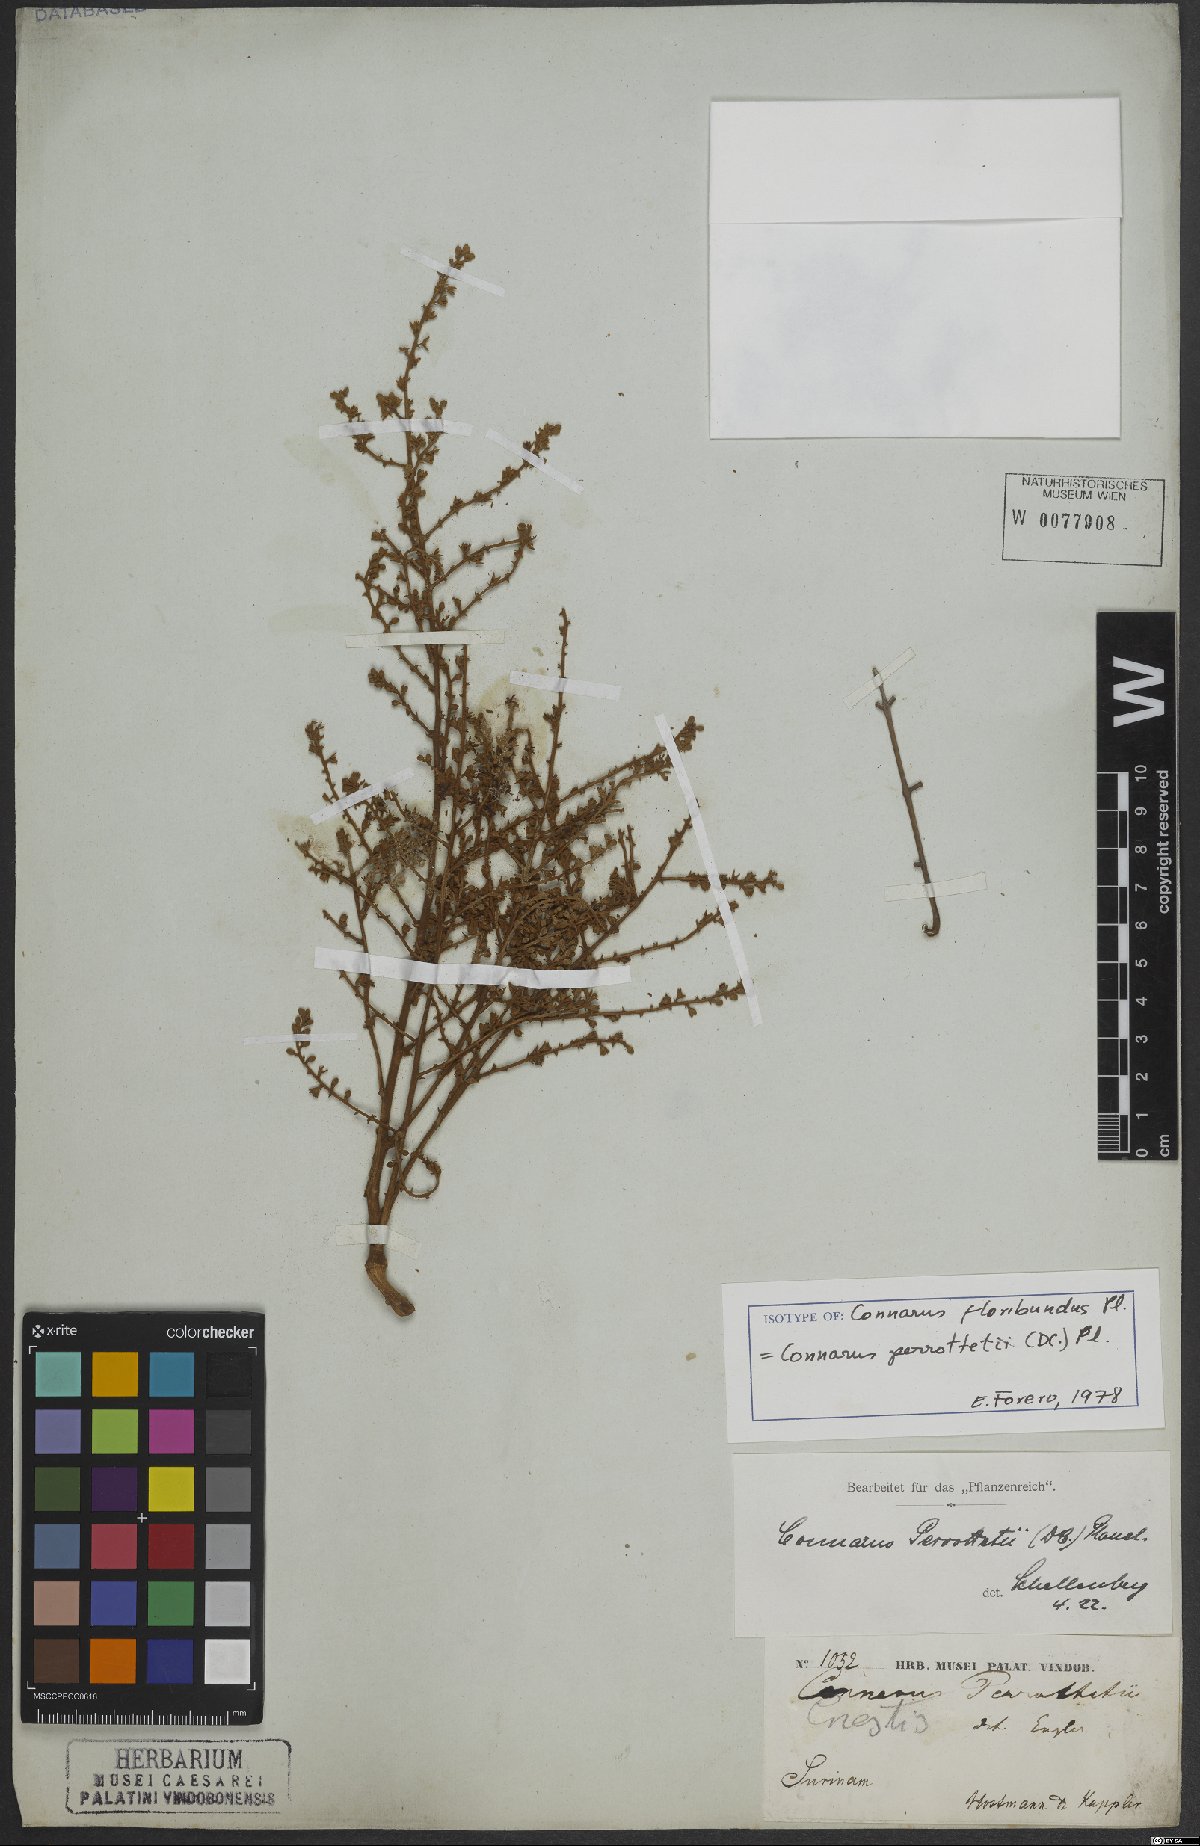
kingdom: Plantae
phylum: Tracheophyta
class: Magnoliopsida
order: Oxalidales
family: Connaraceae
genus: Connarus
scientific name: Connarus perrottetii
